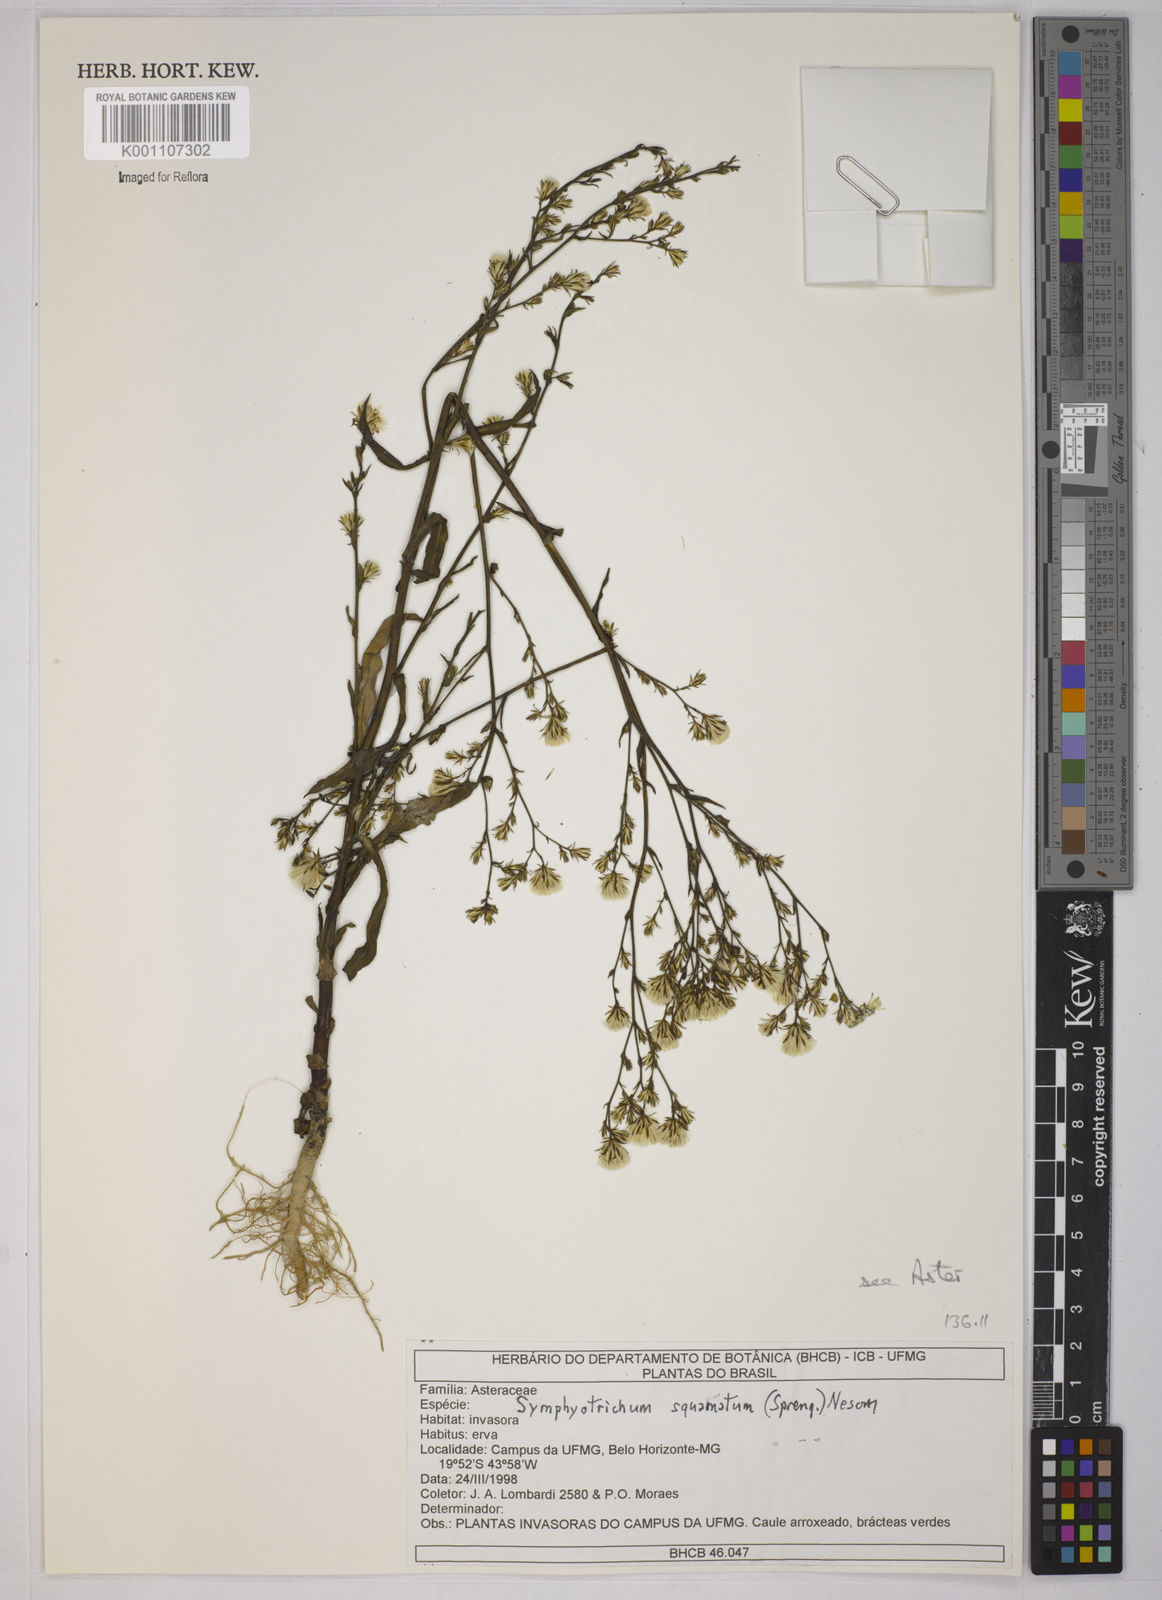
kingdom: Plantae
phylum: Tracheophyta
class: Magnoliopsida
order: Asterales
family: Asteraceae
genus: Symphyotrichum
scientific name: Symphyotrichum
